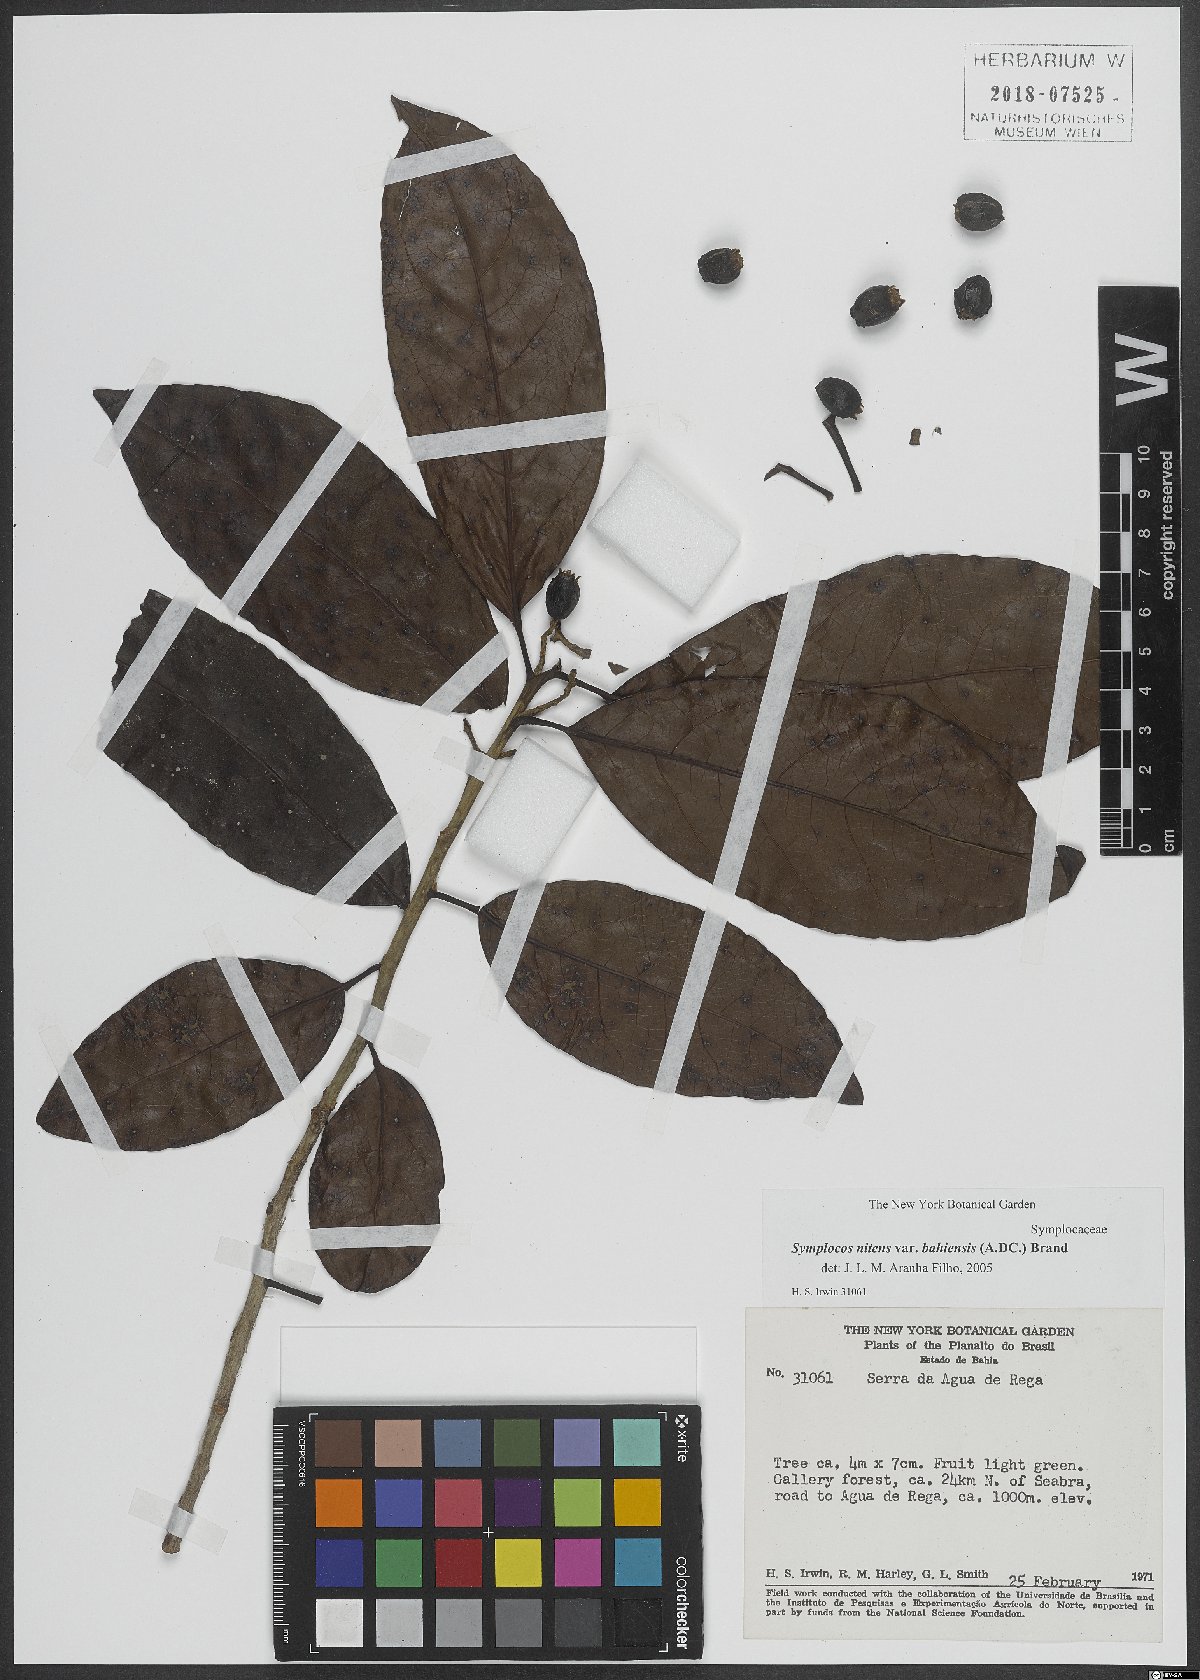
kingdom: Plantae
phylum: Tracheophyta
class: Magnoliopsida
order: Ericales
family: Symplocaceae
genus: Symplocos
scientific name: Symplocos nitens
